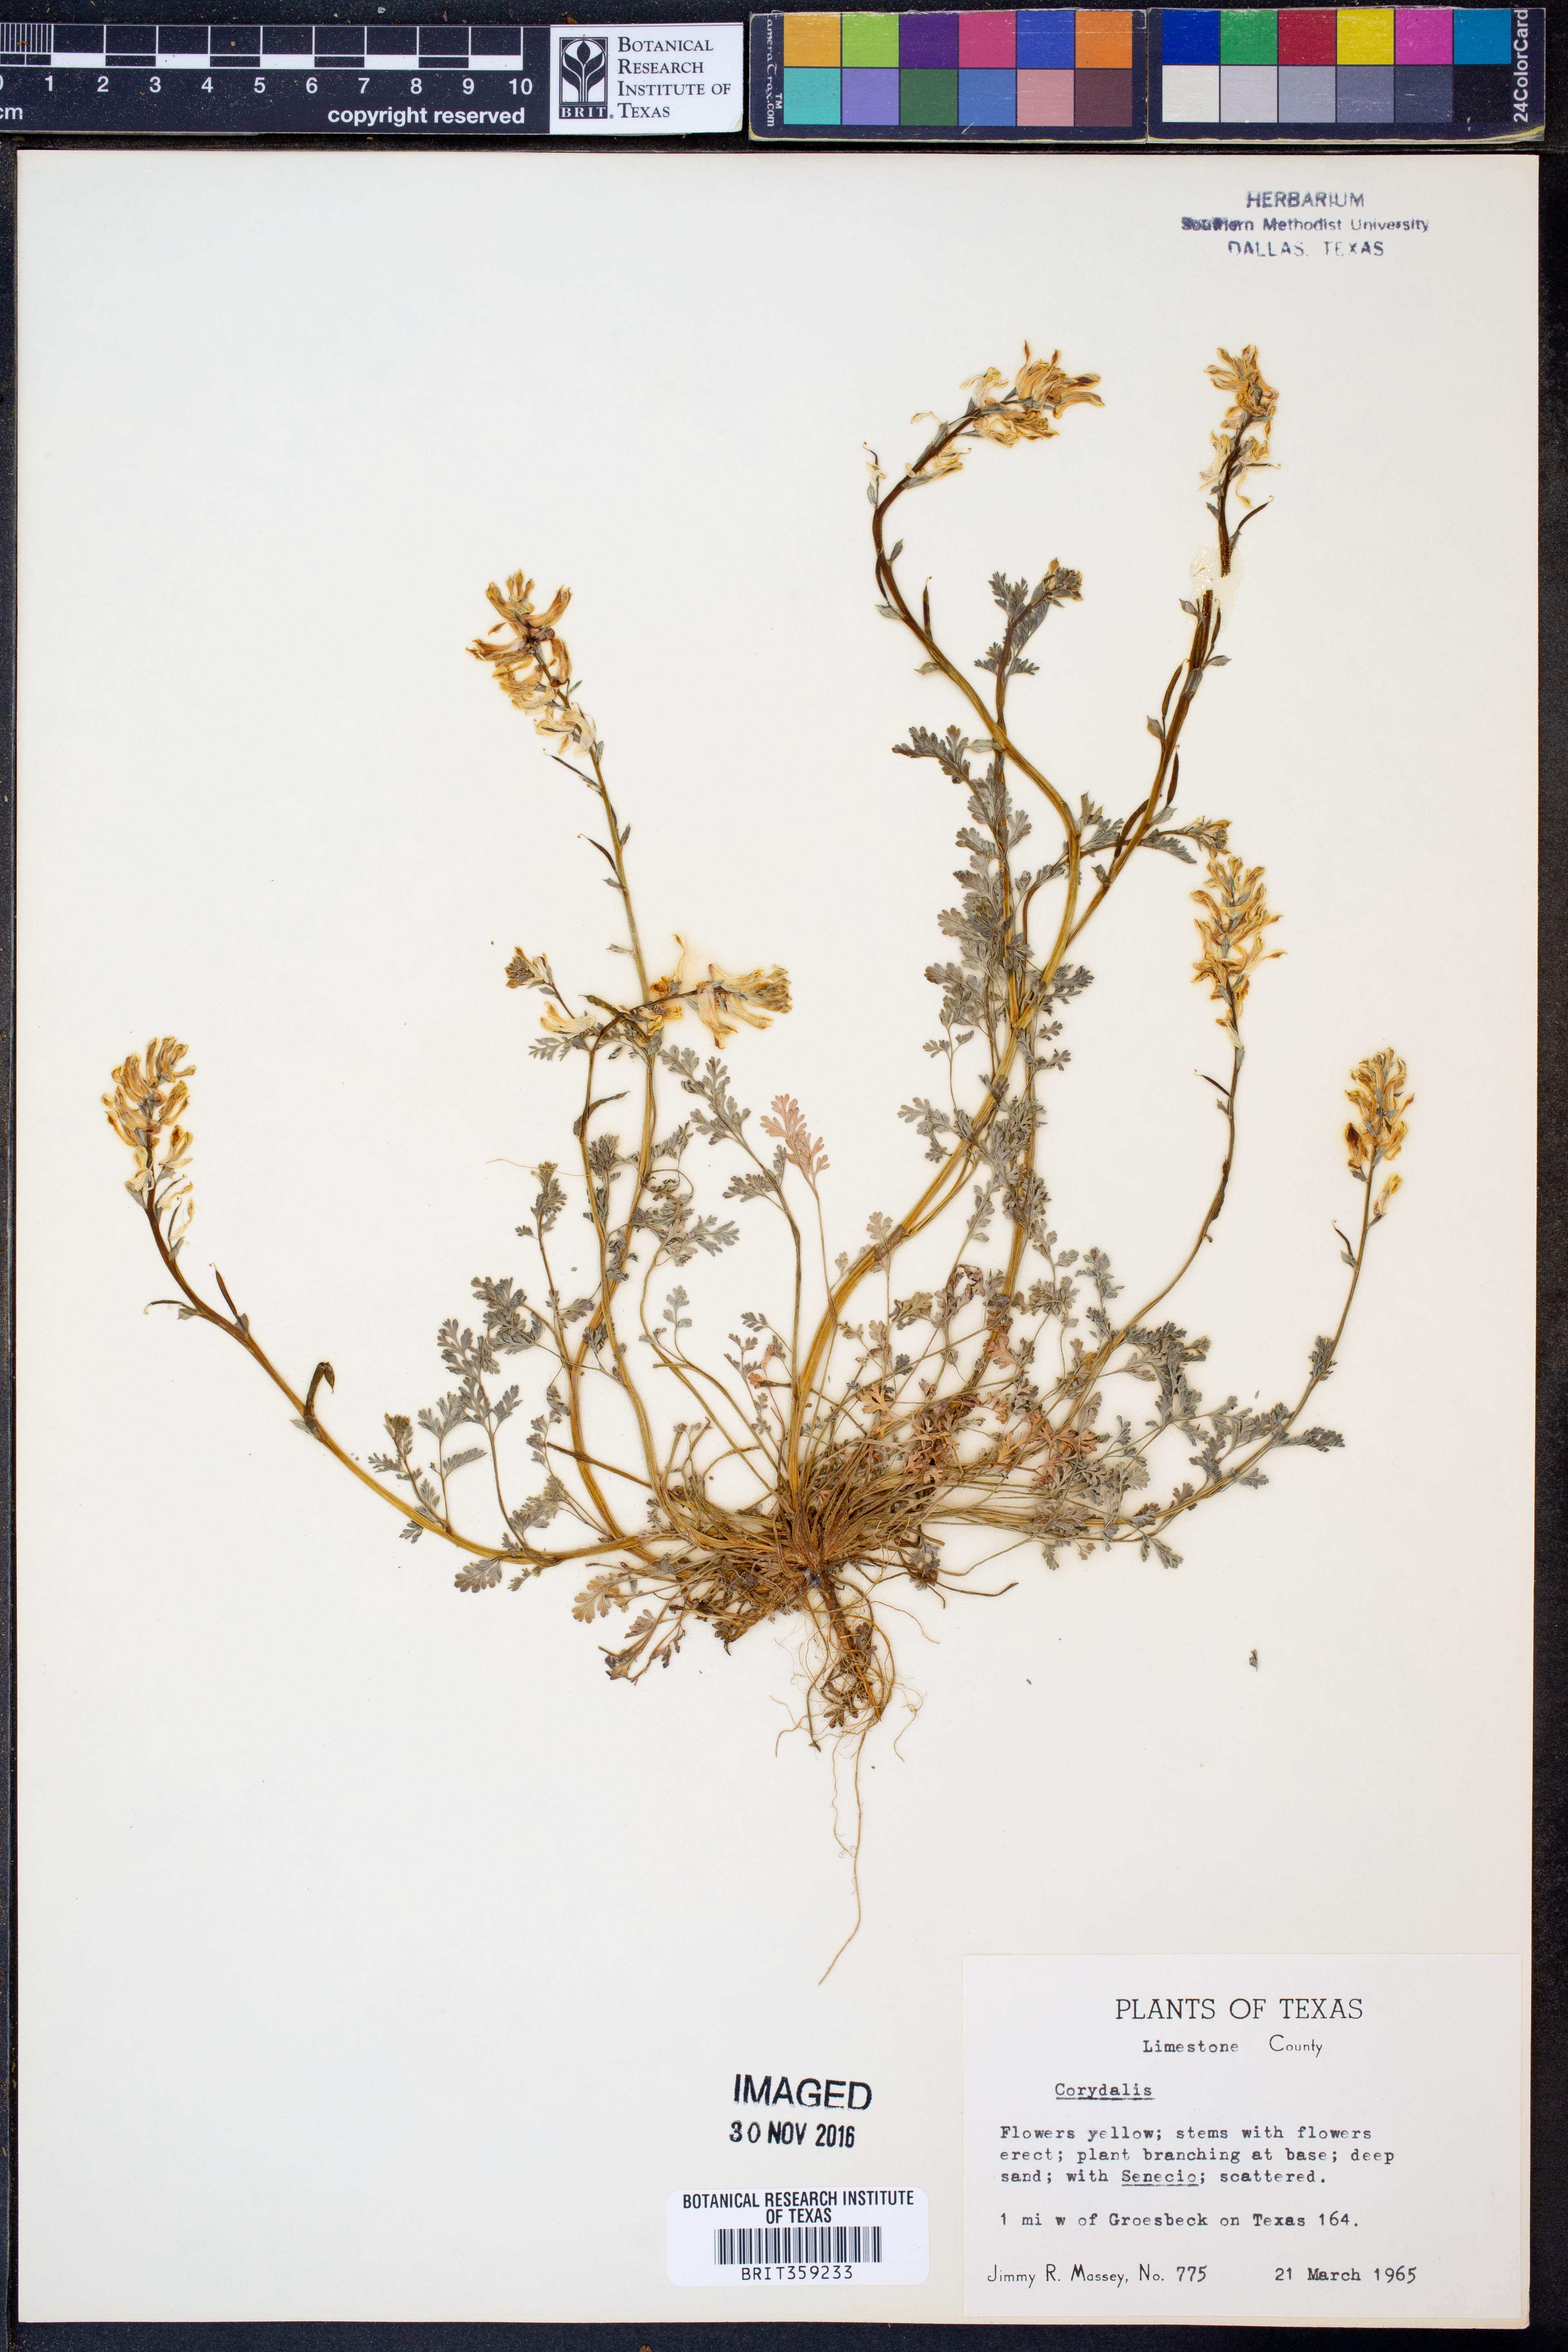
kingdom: Plantae
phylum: Tracheophyta
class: Magnoliopsida
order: Ranunculales
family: Papaveraceae
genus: Corydalis
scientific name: Corydalis
